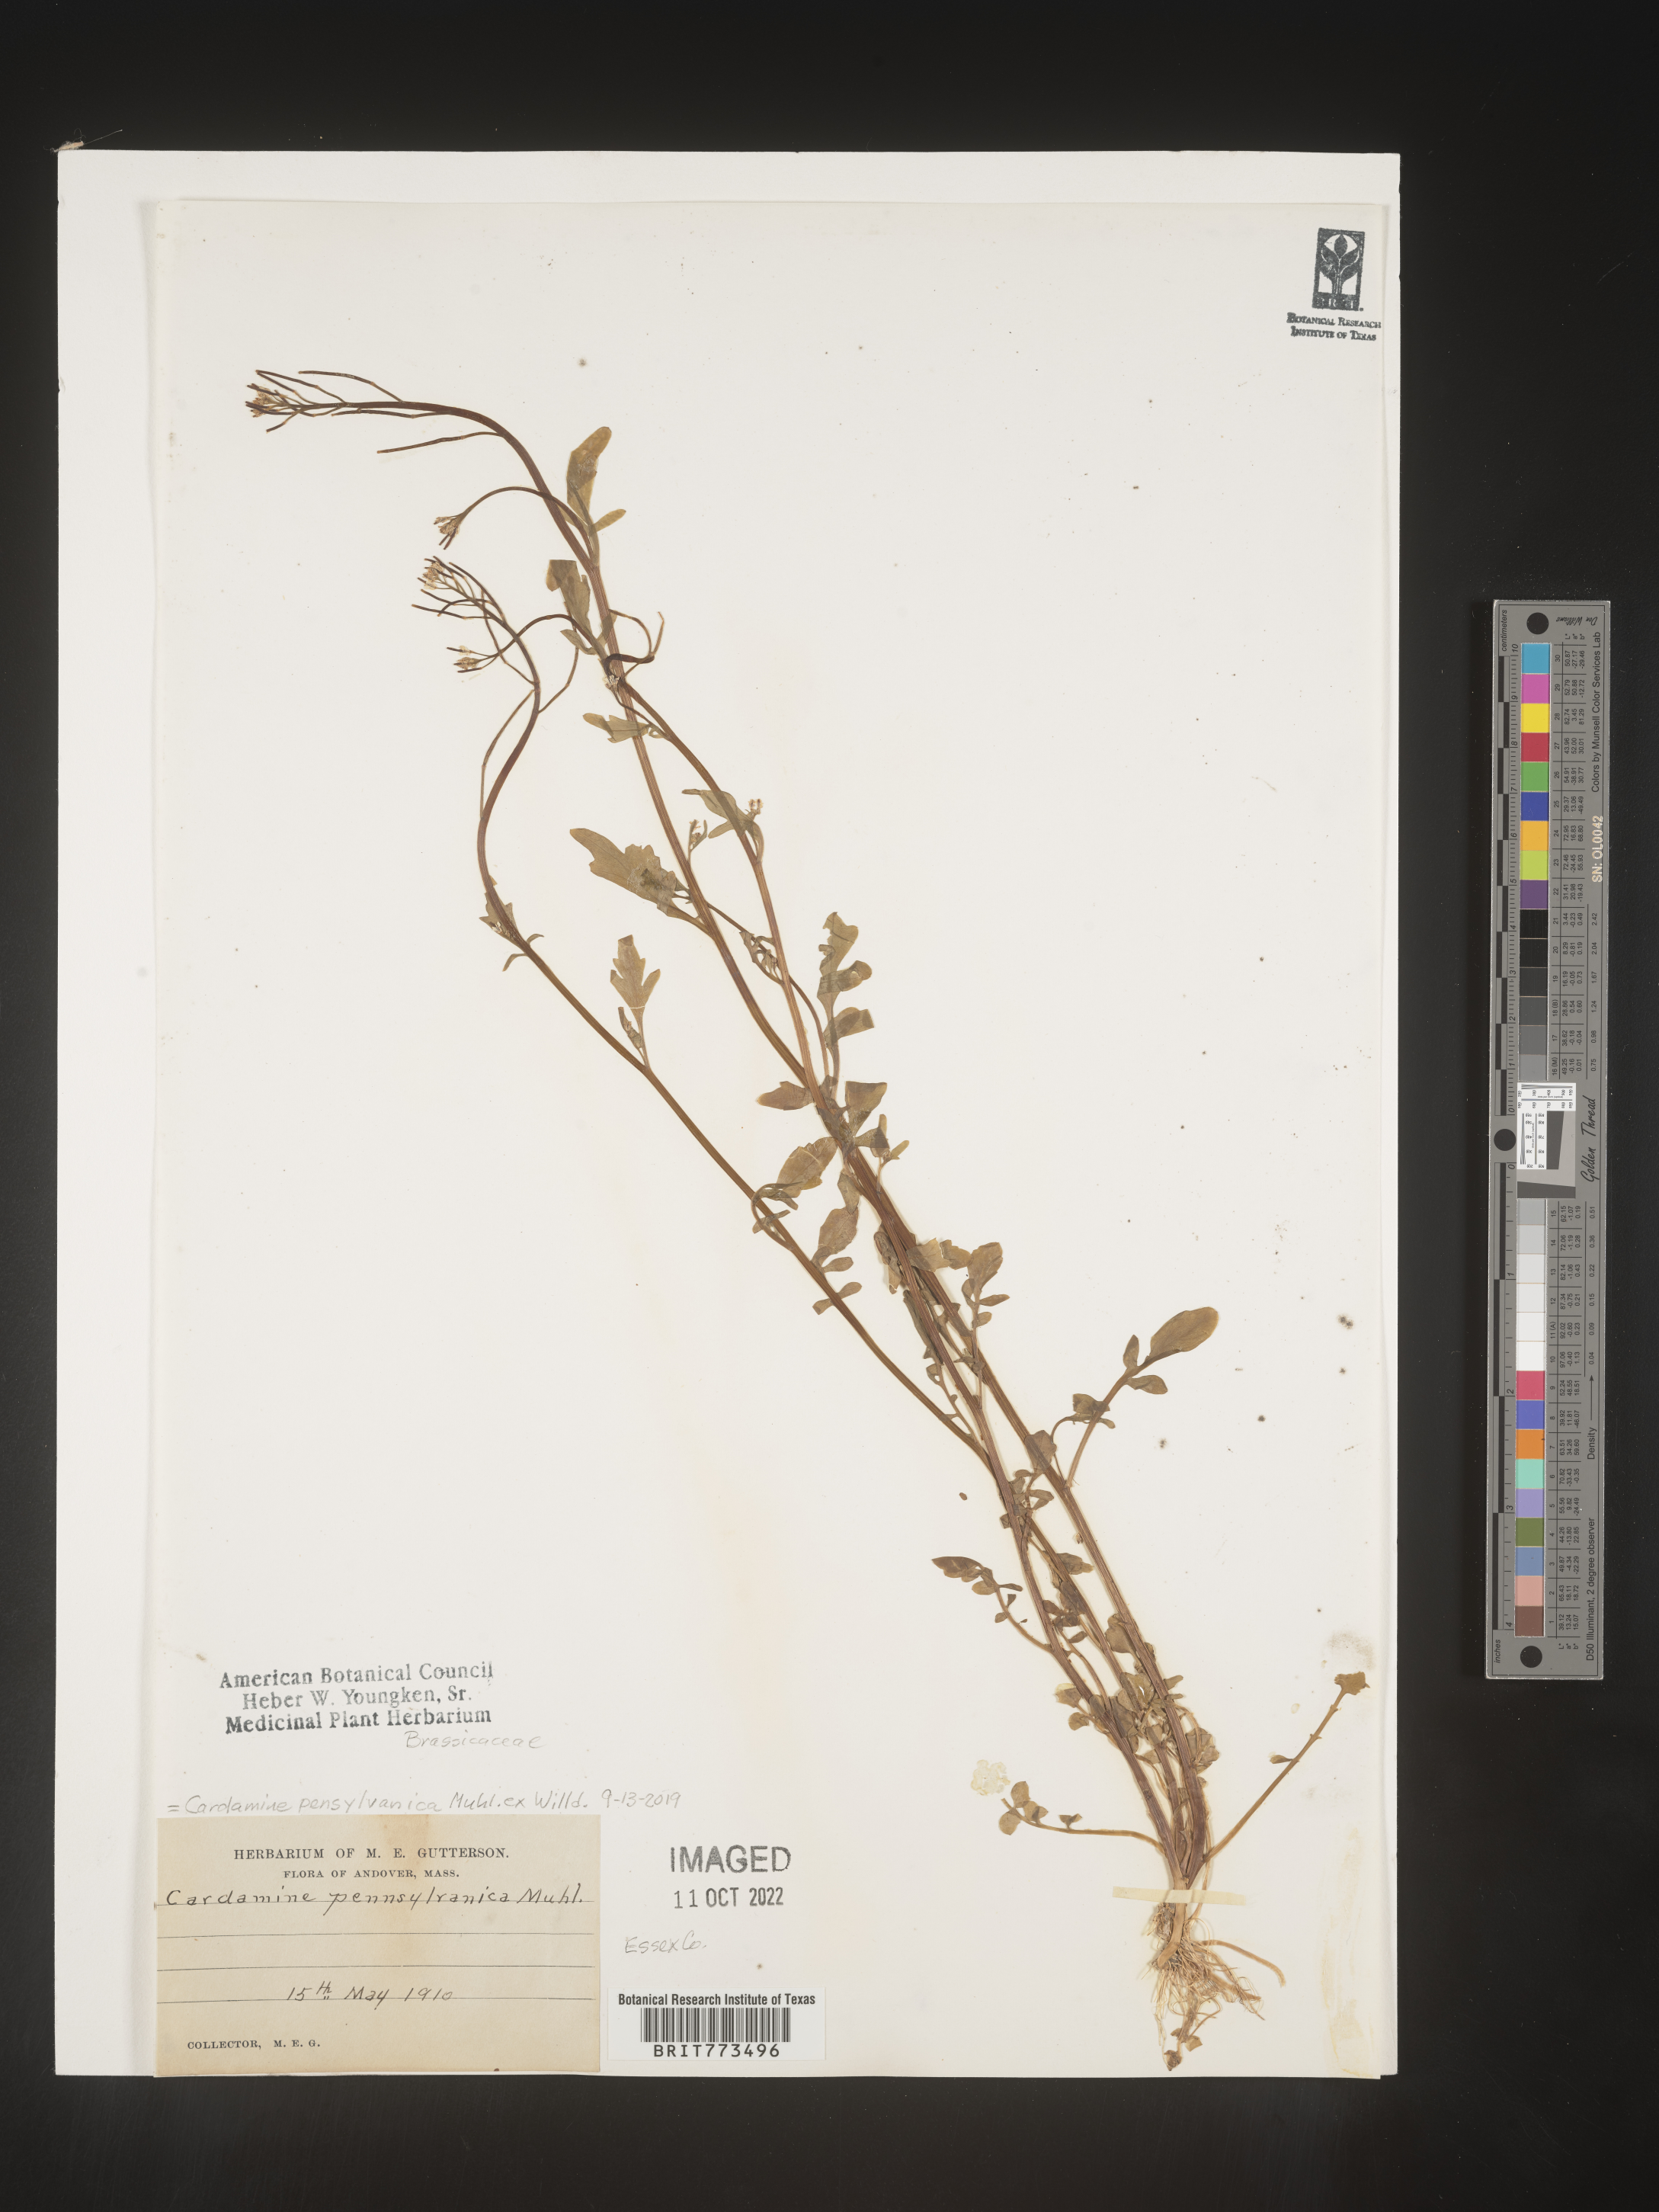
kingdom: Plantae
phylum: Tracheophyta
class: Magnoliopsida
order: Brassicales
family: Brassicaceae
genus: Cardamine
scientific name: Cardamine pensylvanica
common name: Pennsylvania bittercress
